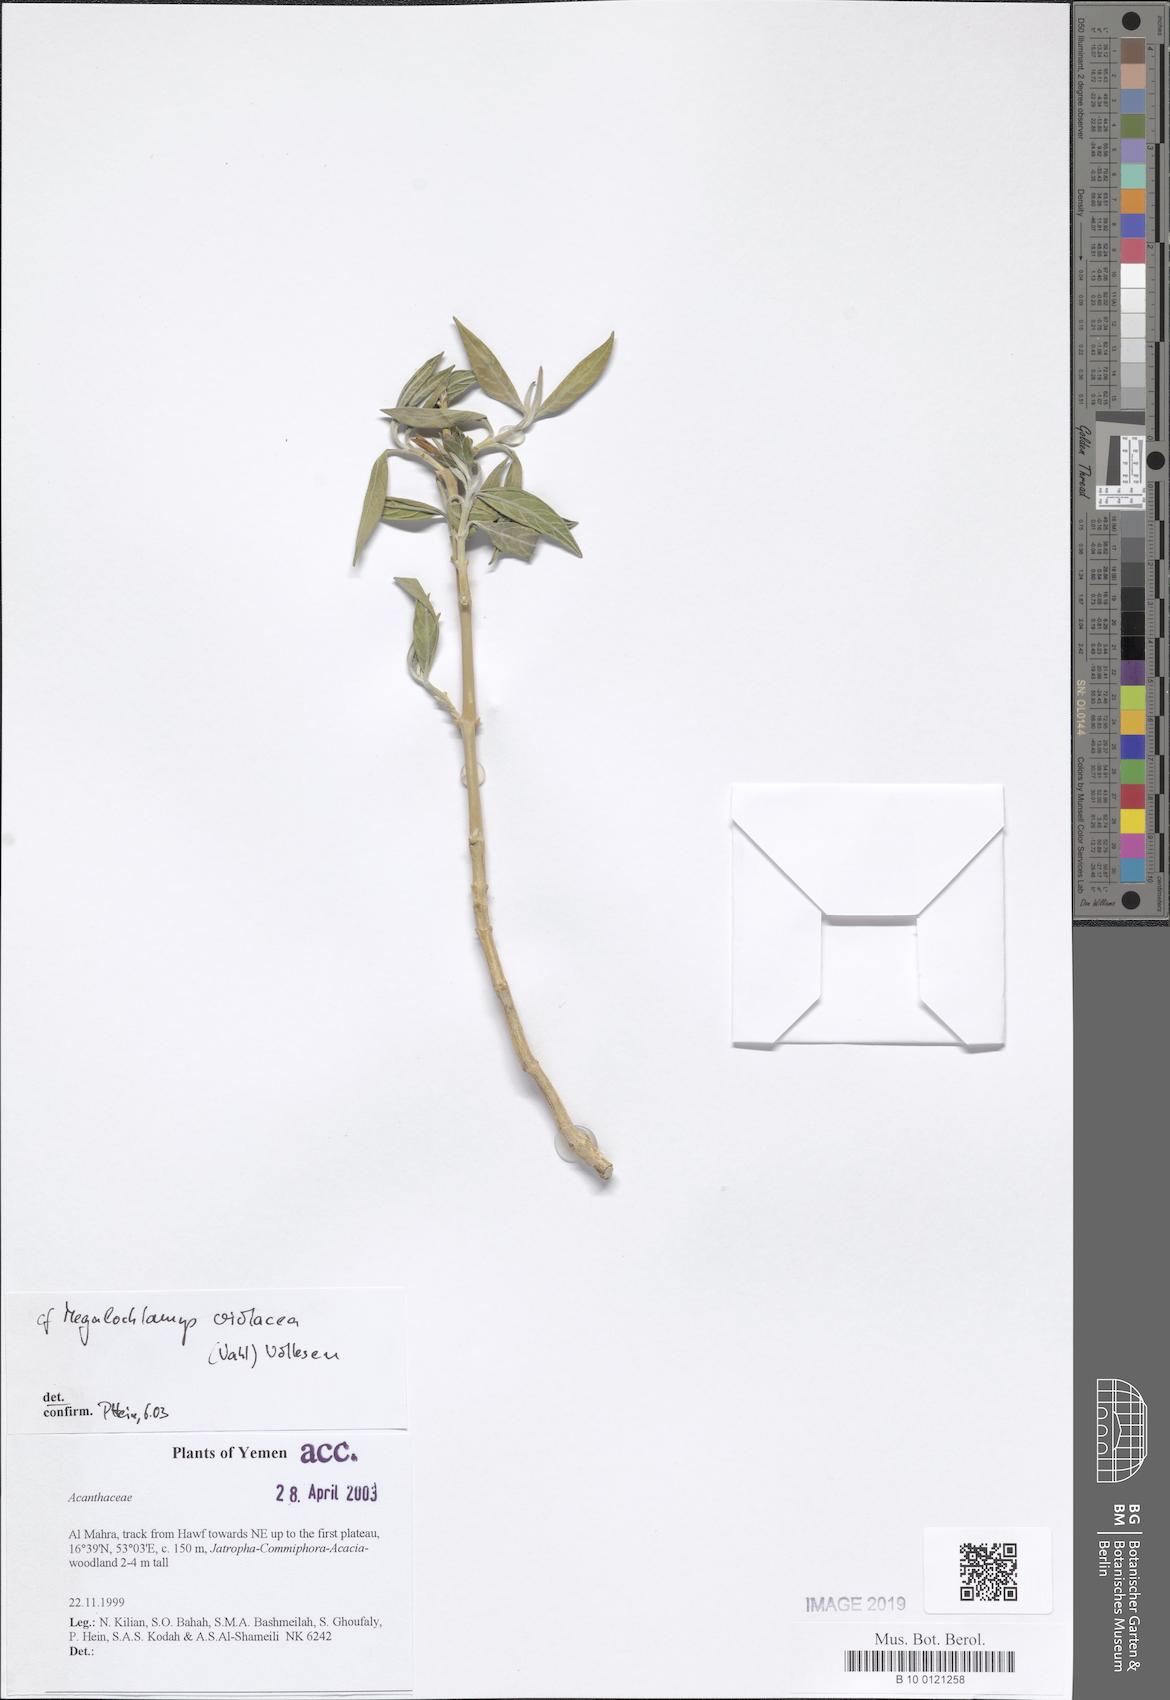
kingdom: Plantae
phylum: Tracheophyta
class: Magnoliopsida
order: Lamiales
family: Acanthaceae
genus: Megalochlamys
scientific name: Megalochlamys violacea
